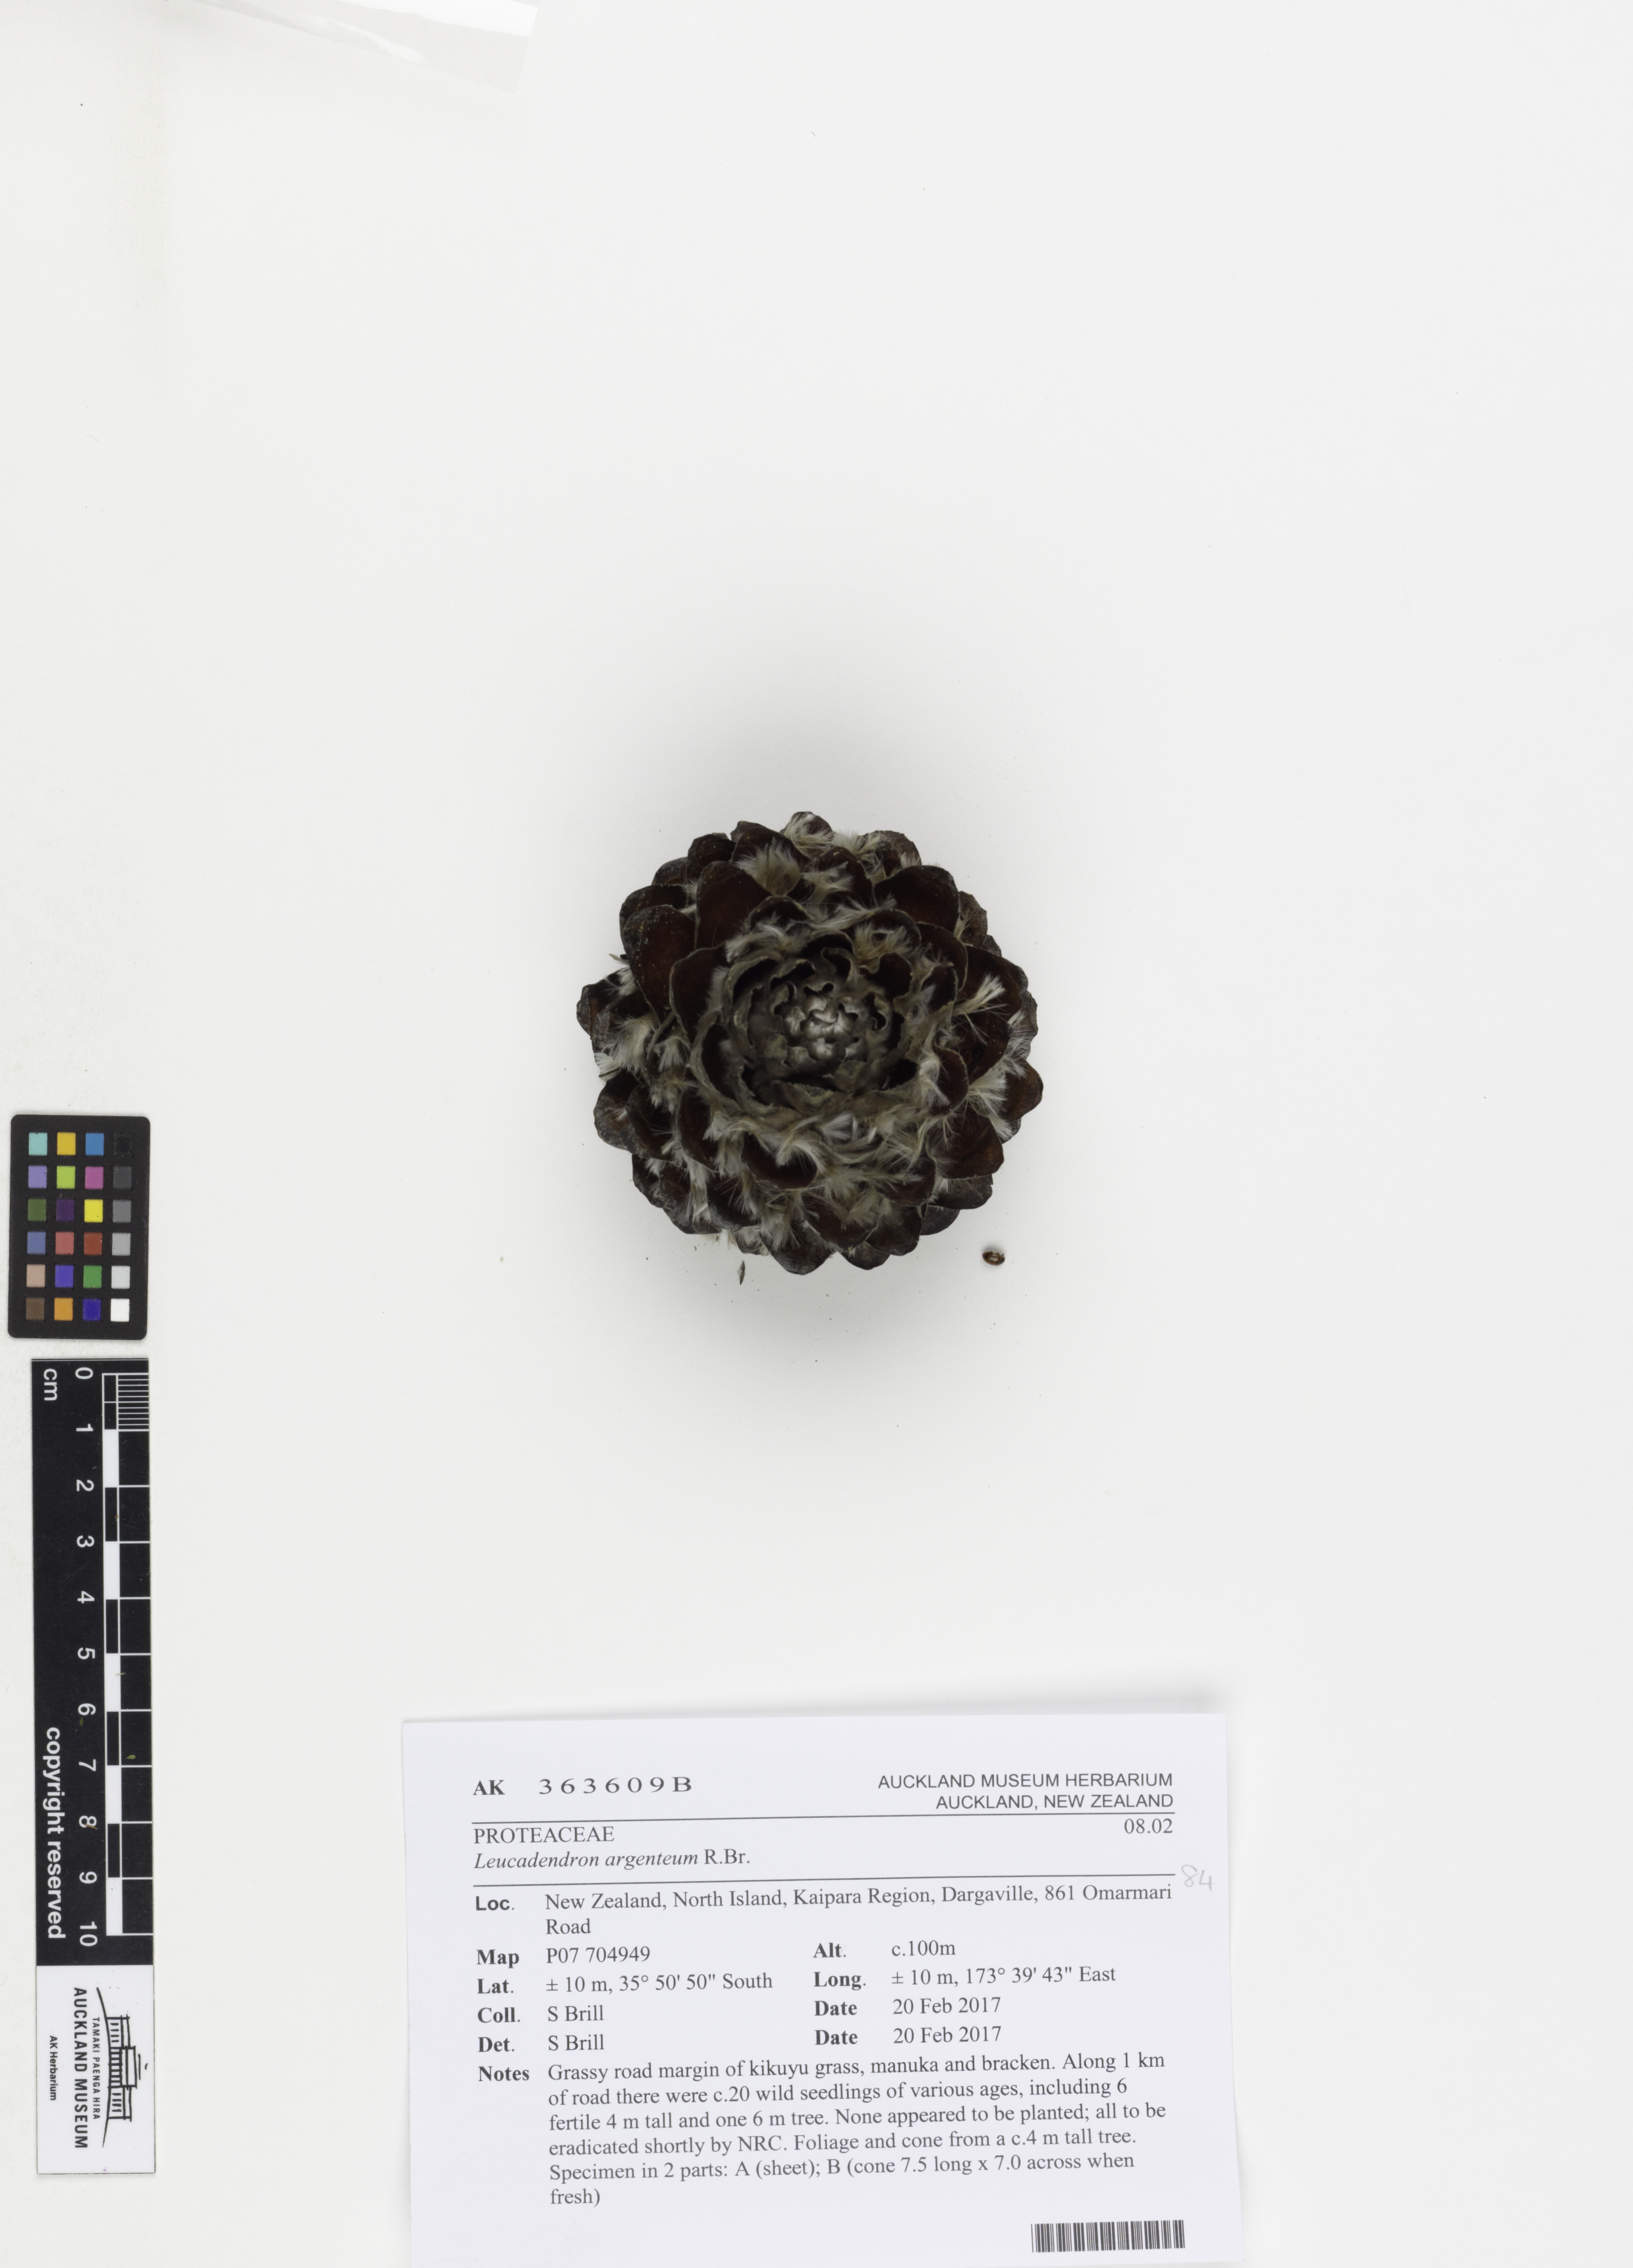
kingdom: Plantae
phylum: Tracheophyta
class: Magnoliopsida
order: Proteales
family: Proteaceae
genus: Leucadendron
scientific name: Leucadendron argenteum
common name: Cape silver tree
